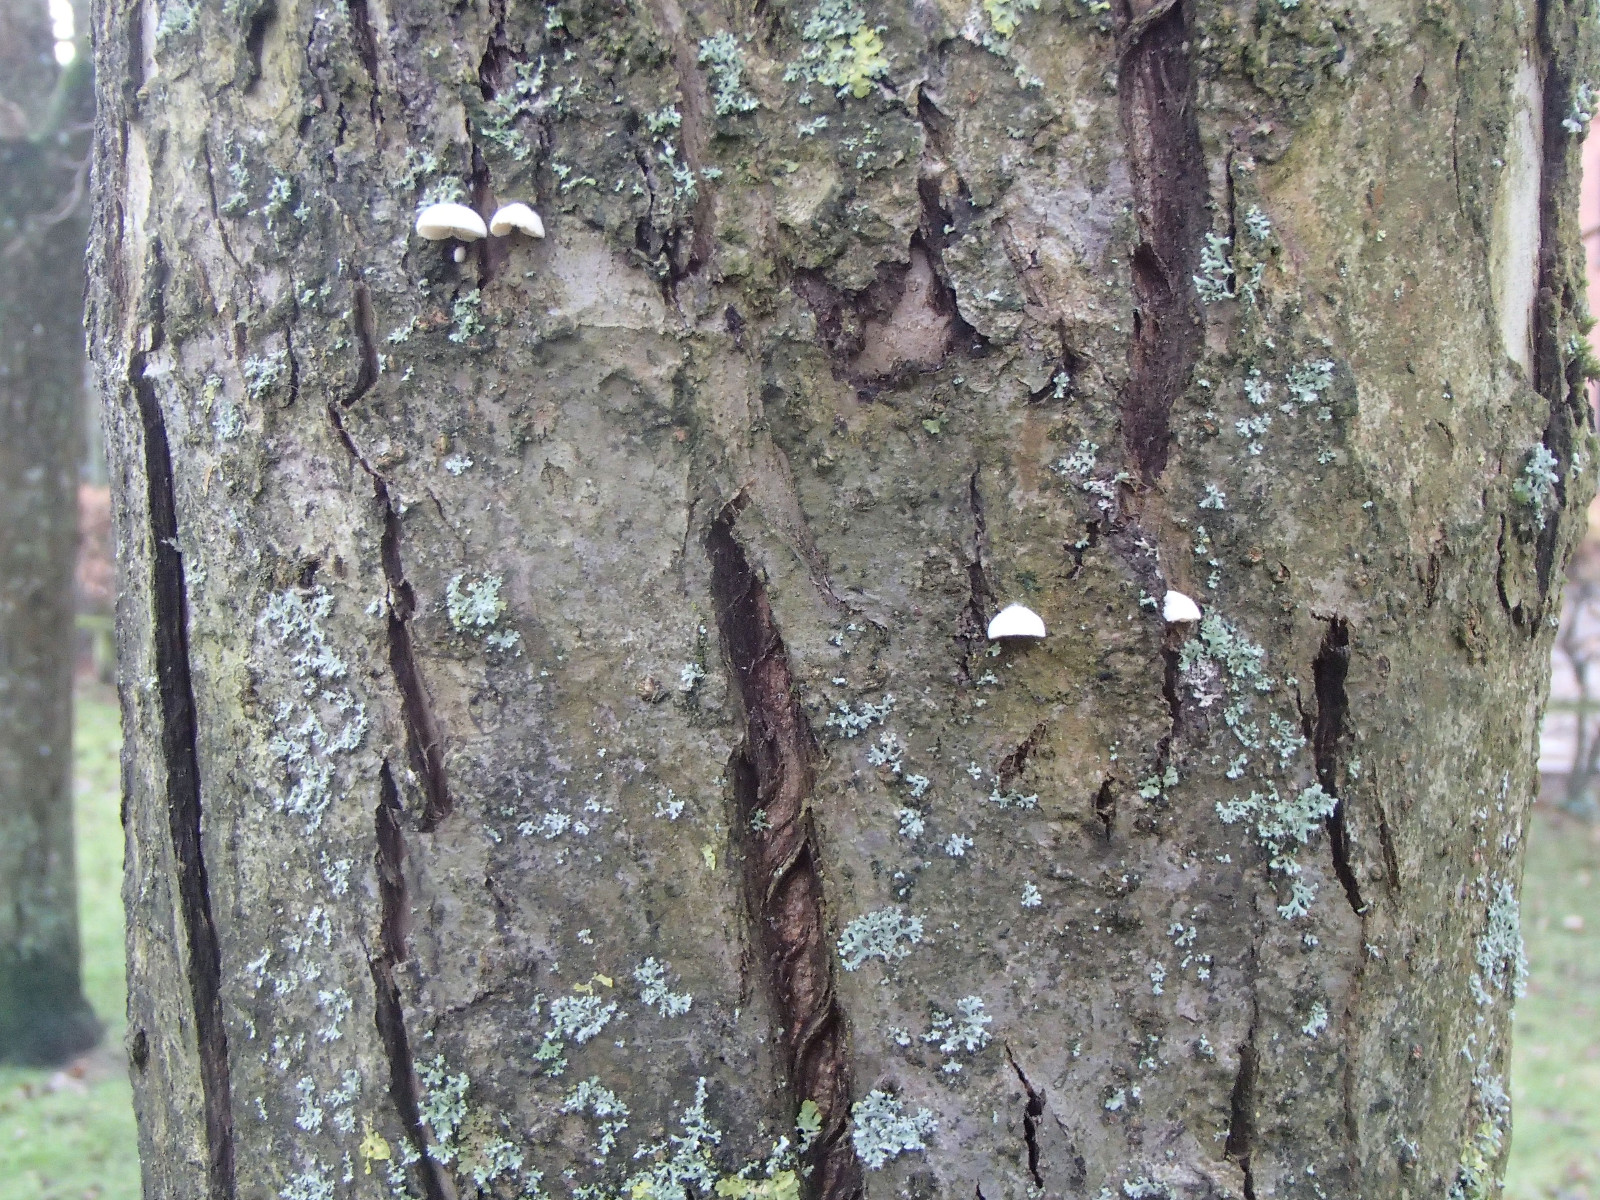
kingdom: Fungi
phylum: Basidiomycota
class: Agaricomycetes
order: Agaricales
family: Crepidotaceae
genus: Crepidotus
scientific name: Crepidotus
